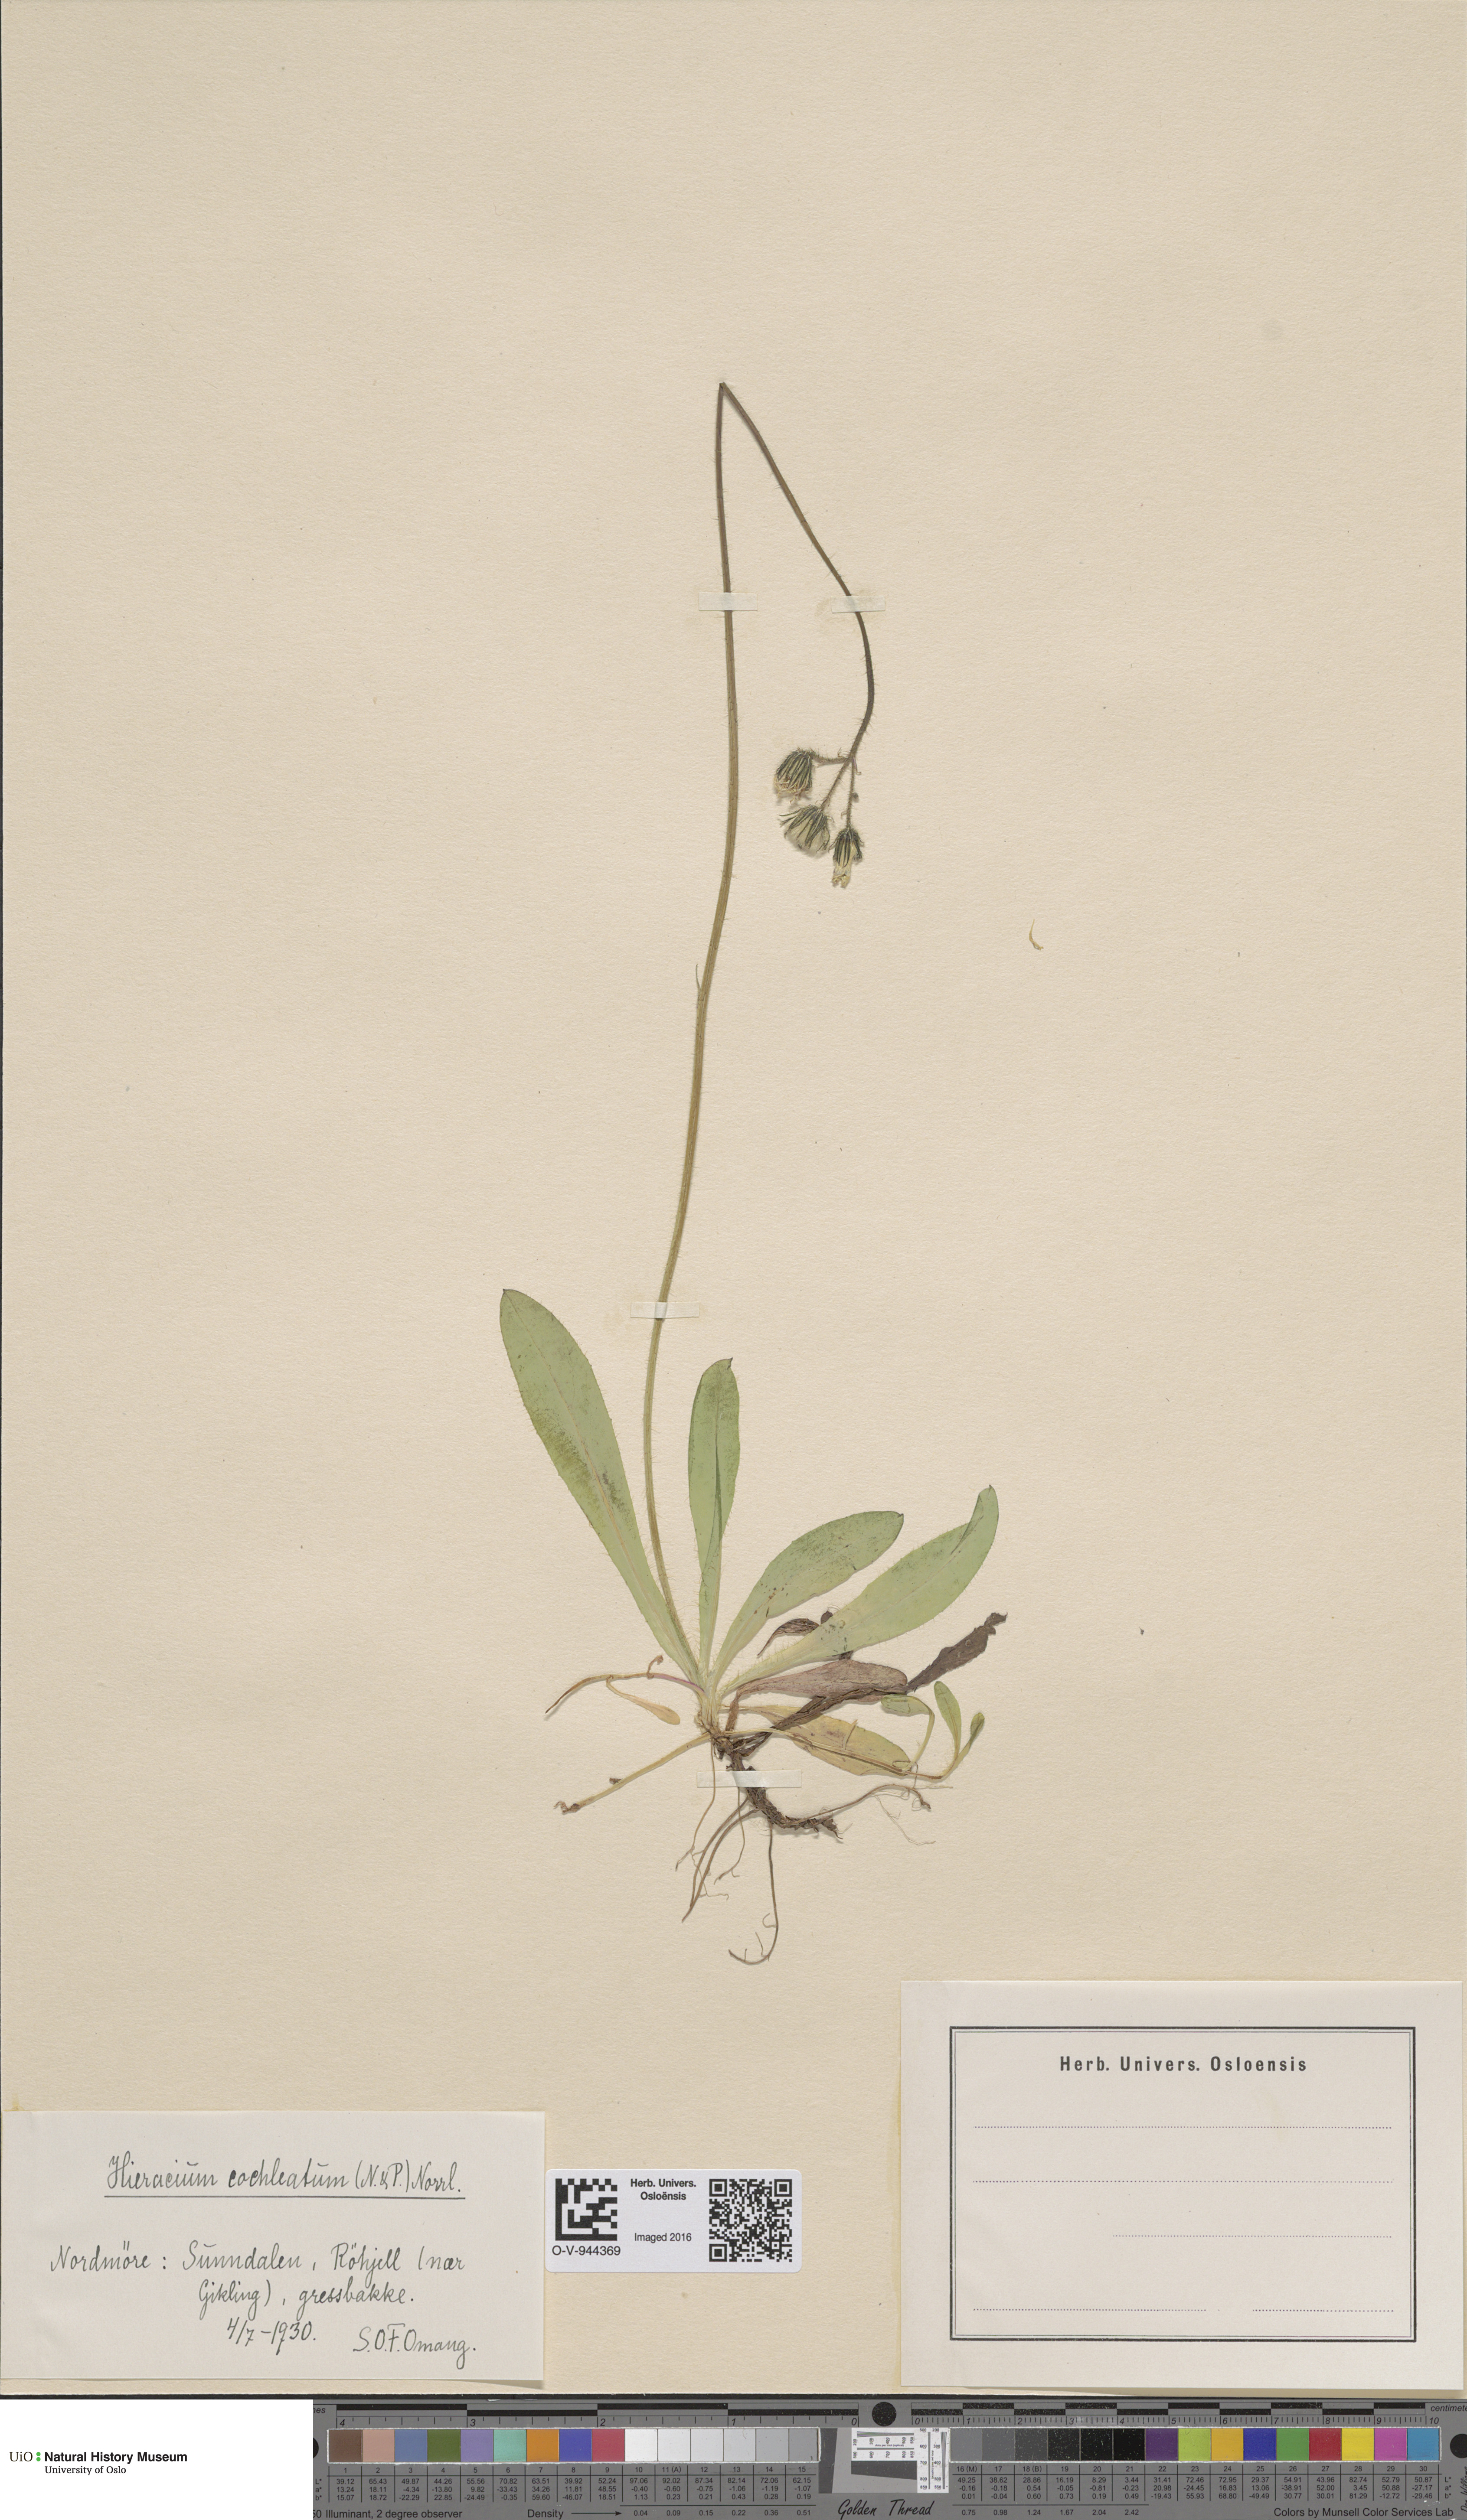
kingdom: Plantae
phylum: Tracheophyta
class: Magnoliopsida
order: Asterales
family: Asteraceae
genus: Pilosella
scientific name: Pilosella floribunda
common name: Glaucous hawkweed
